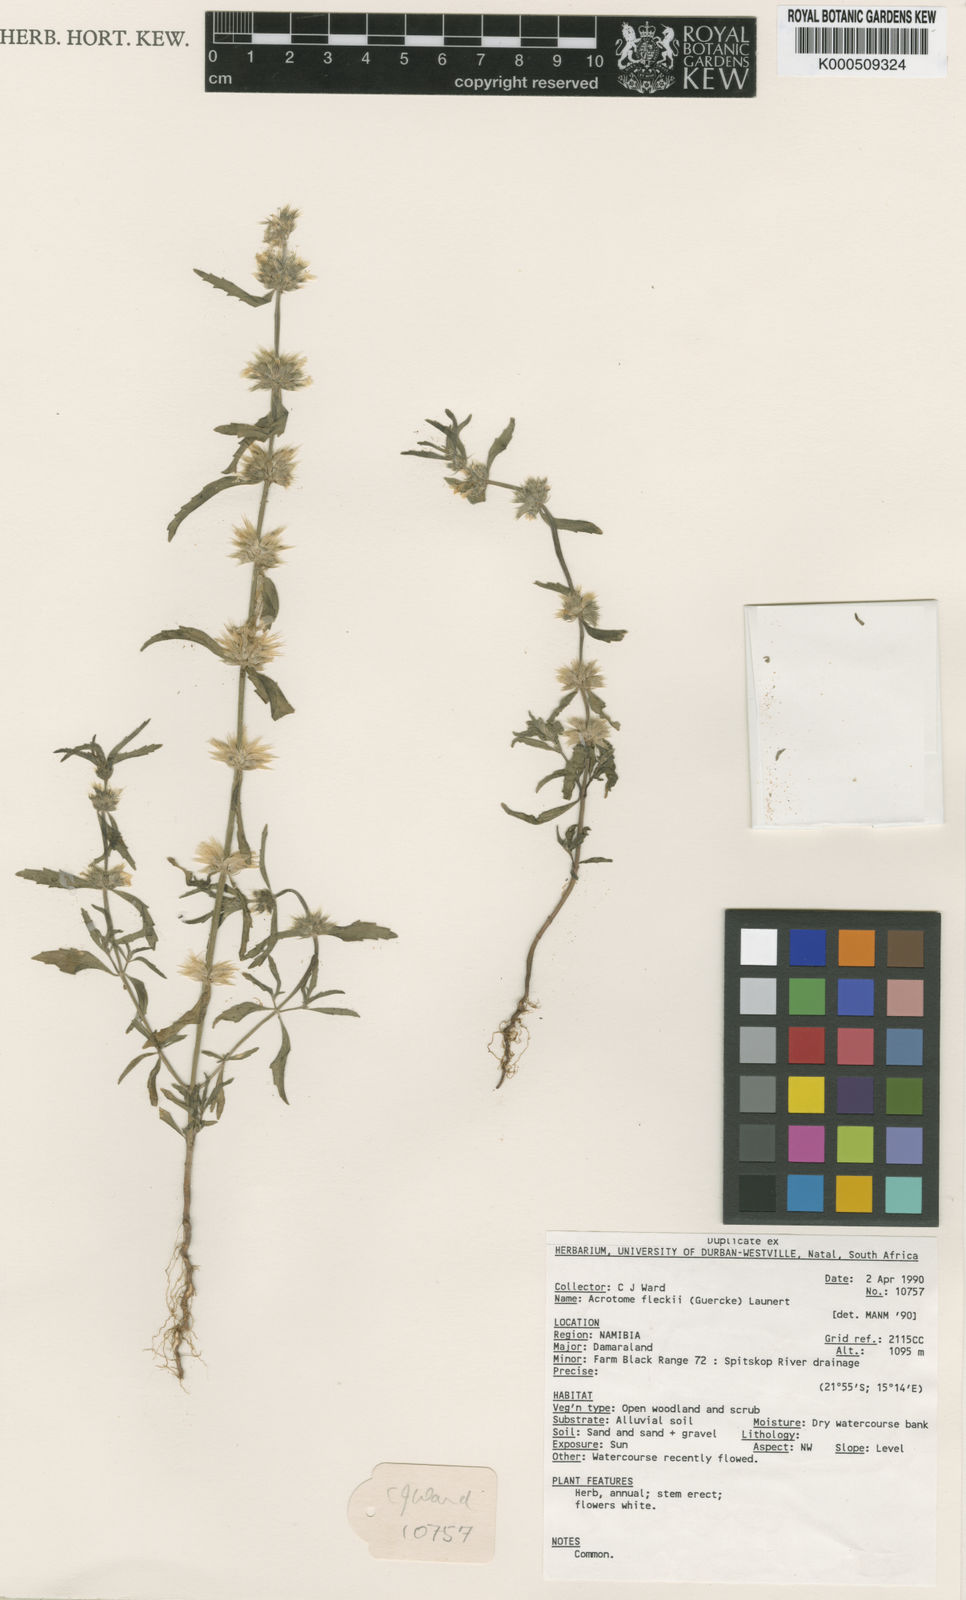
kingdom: Plantae
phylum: Tracheophyta
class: Magnoliopsida
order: Lamiales
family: Lamiaceae
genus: Acrotome
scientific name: Acrotome
